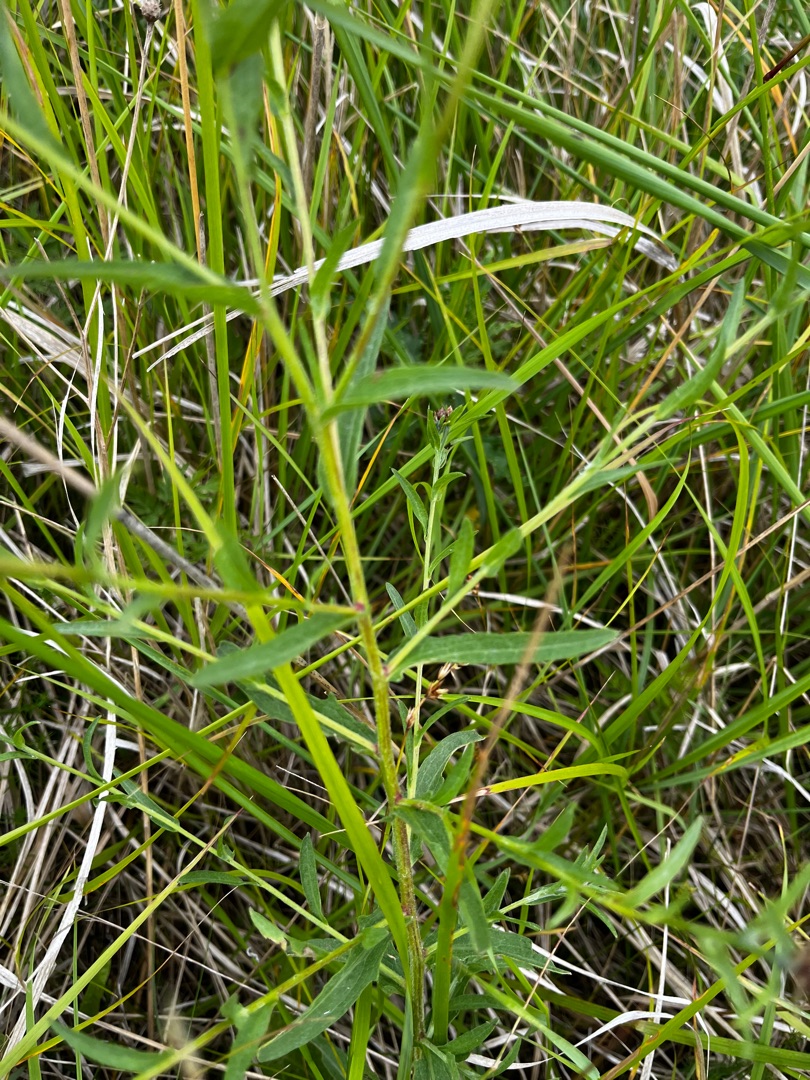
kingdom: Plantae
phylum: Tracheophyta
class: Magnoliopsida
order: Asterales
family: Asteraceae
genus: Centaurea
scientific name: Centaurea jacea
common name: Smalbladet knopurt
